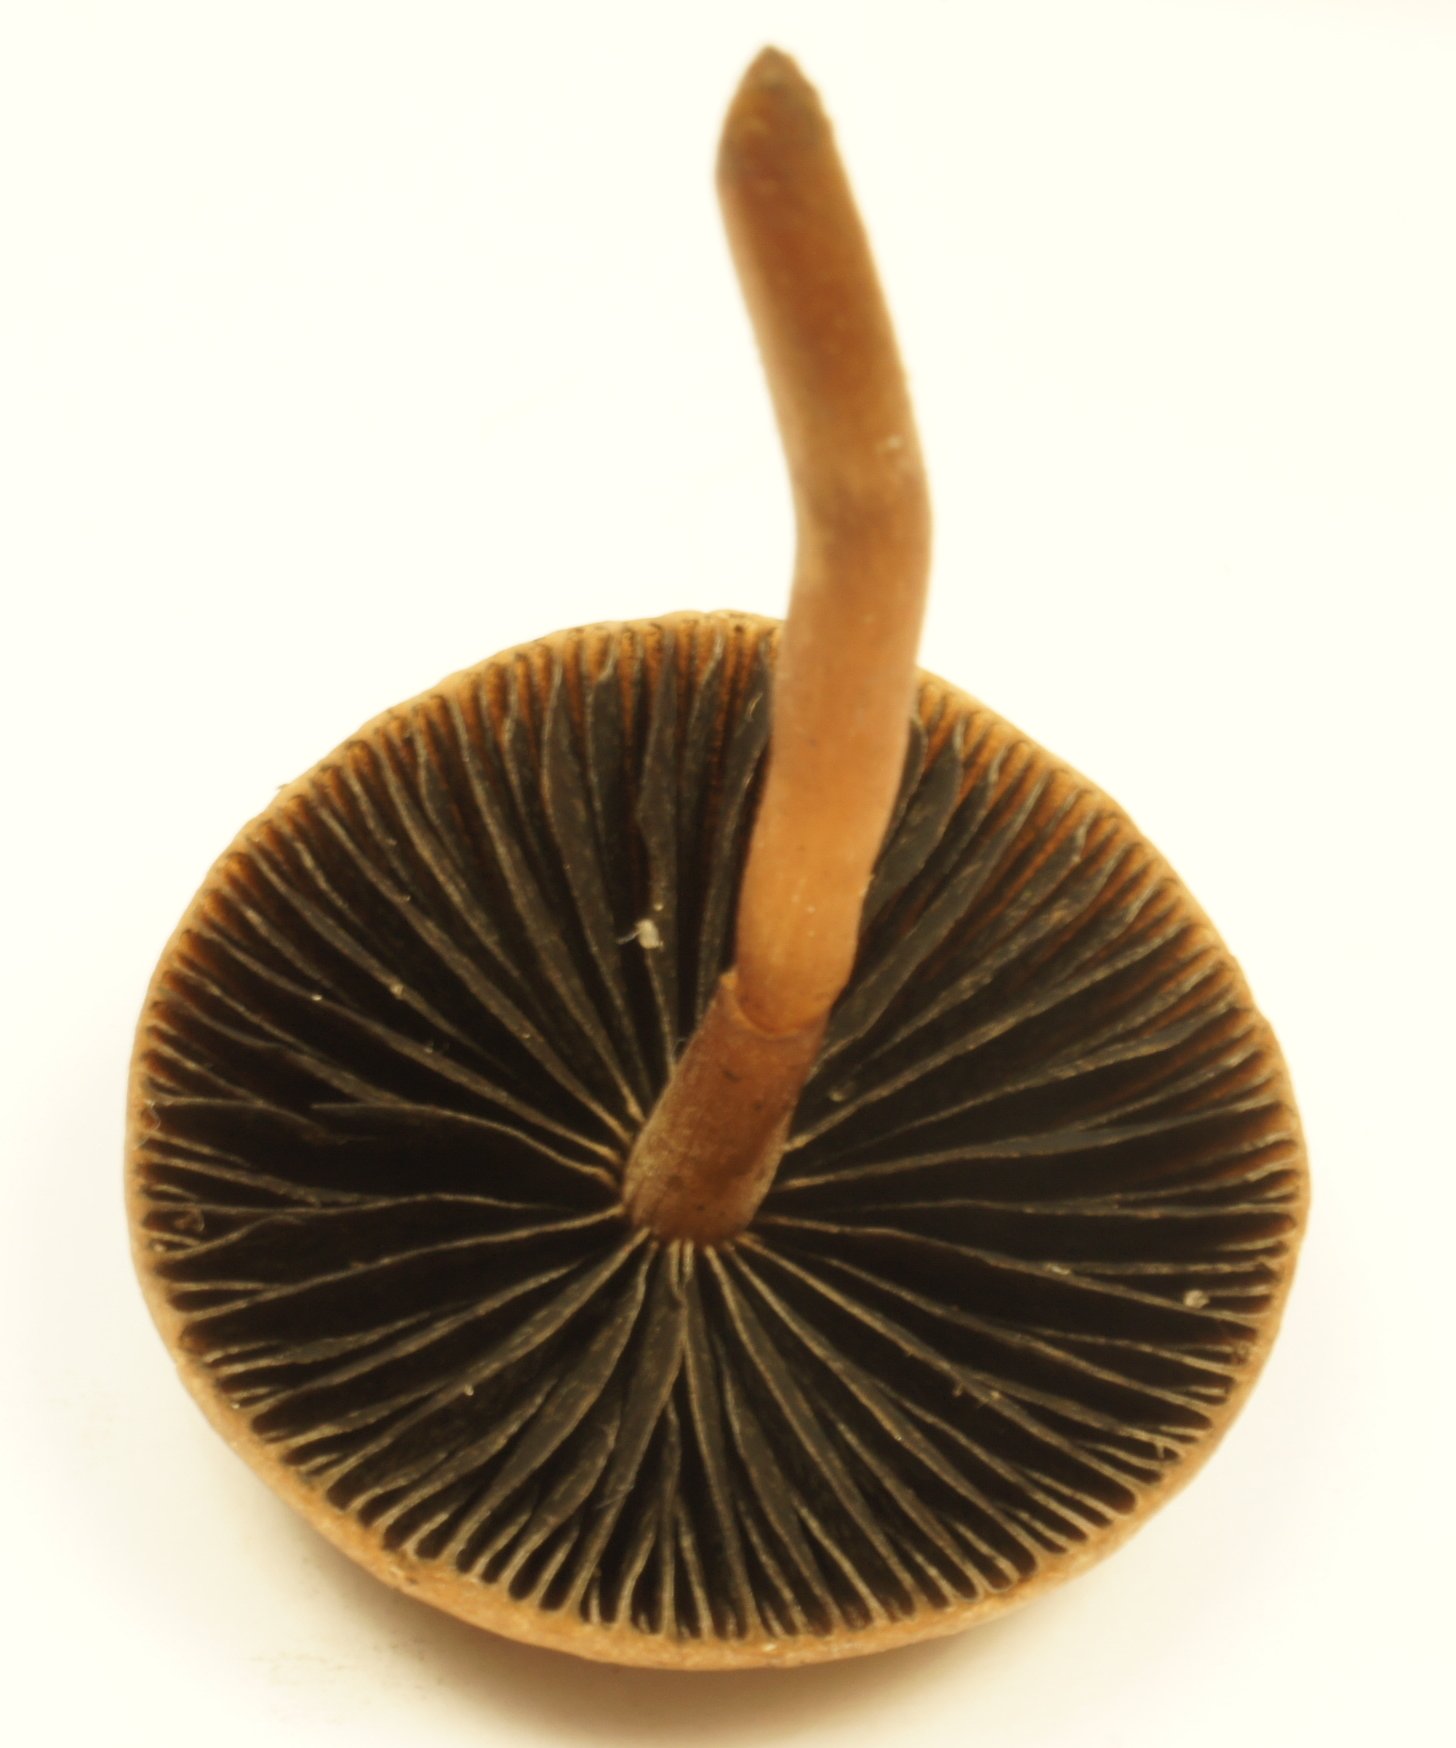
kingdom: Fungi
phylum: Basidiomycota
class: Agaricomycetes
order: Agaricales
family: Bolbitiaceae
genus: Panaeolus
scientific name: Panaeolus fimicola
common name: tidlig glanshat
